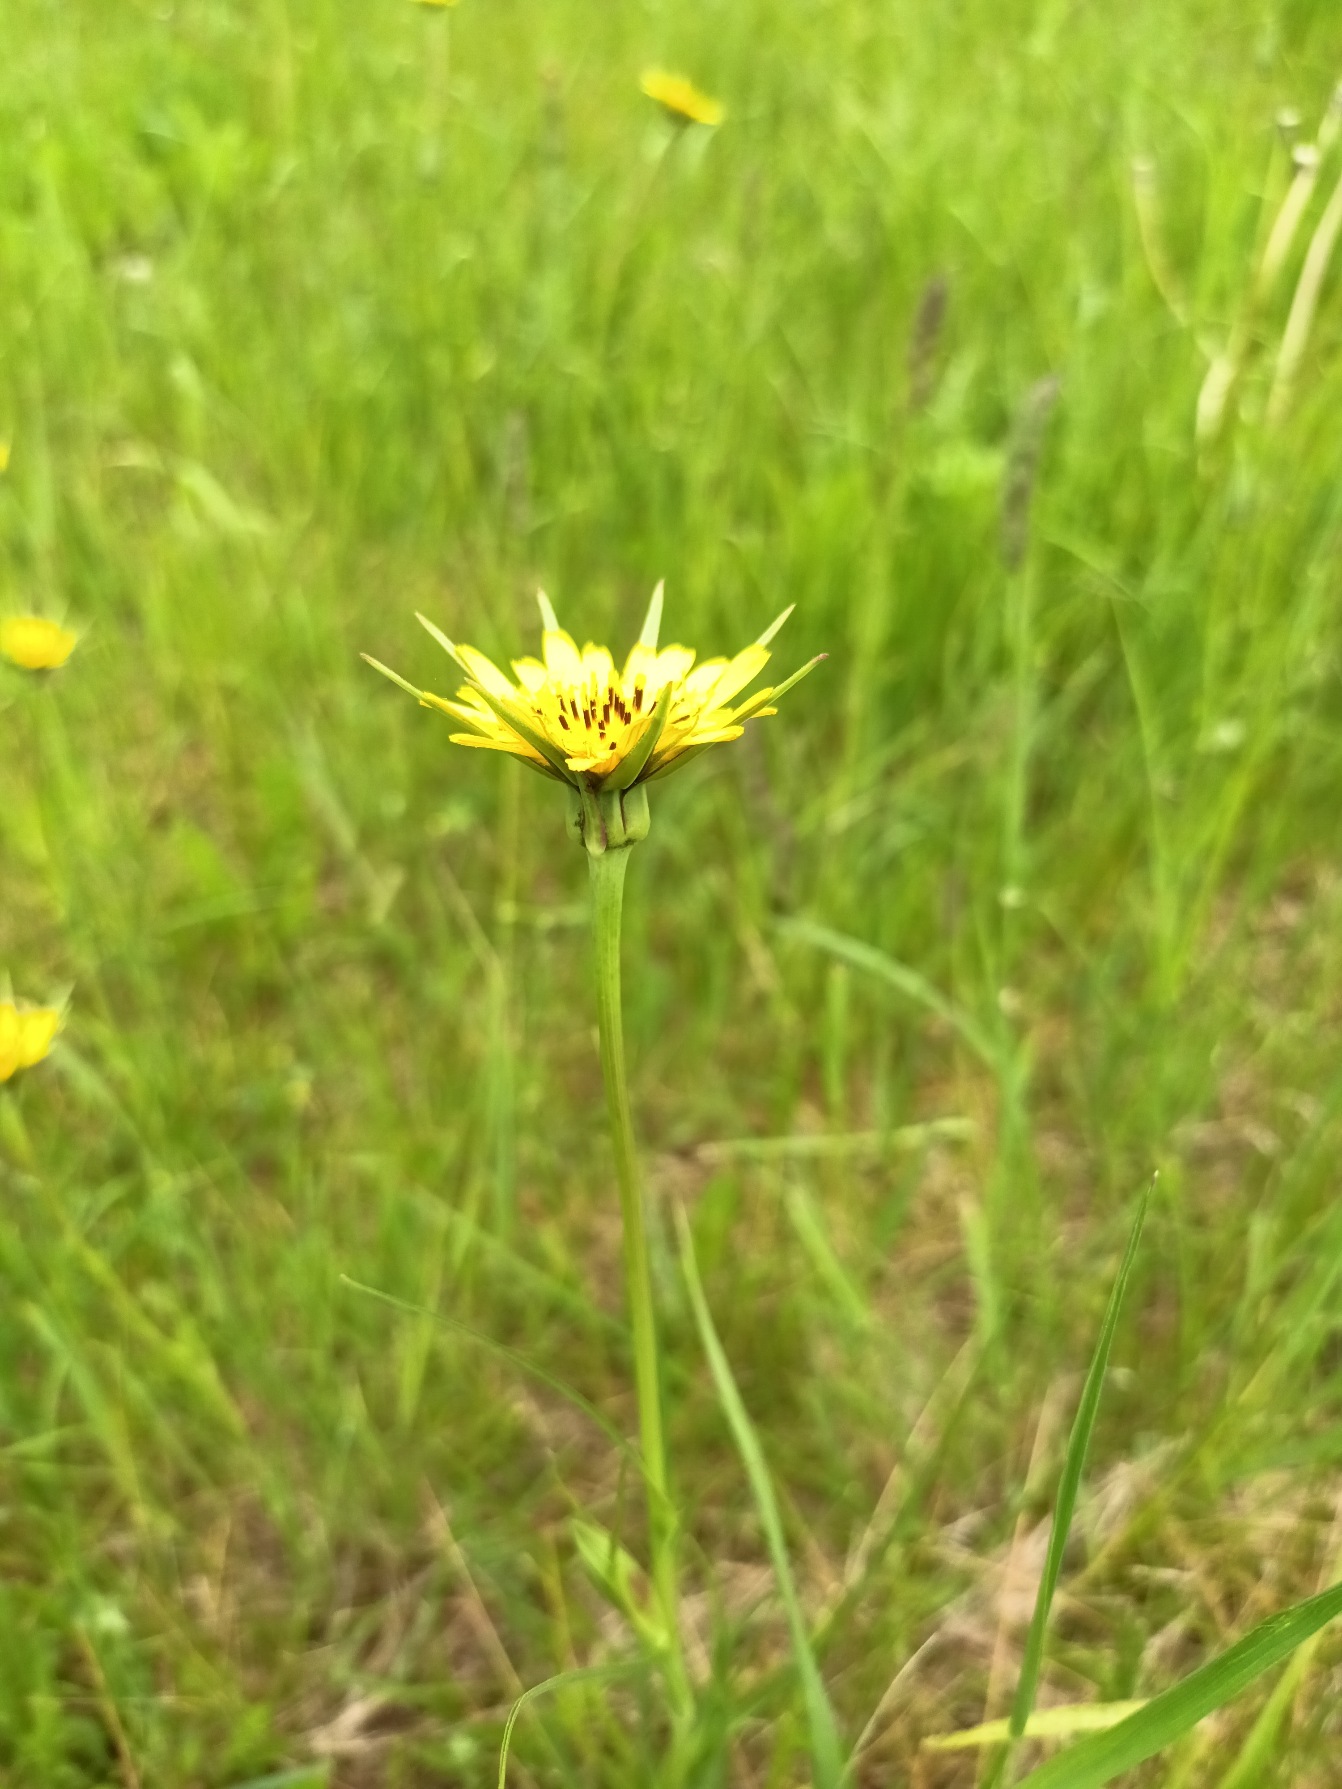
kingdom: Plantae
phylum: Tracheophyta
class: Magnoliopsida
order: Asterales
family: Asteraceae
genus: Tragopogon
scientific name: Tragopogon minor
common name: Småkronet gedeskæg
